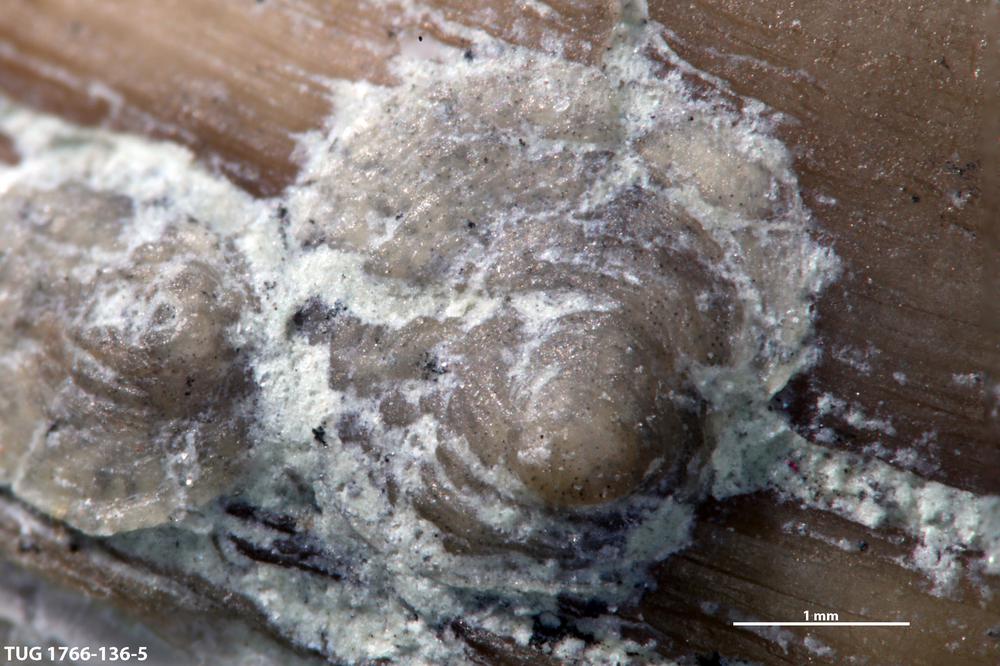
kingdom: Animalia
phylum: Brachiopoda
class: Craniata
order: Craniida
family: Craniidae
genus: Petrocrania
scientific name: Petrocrania
